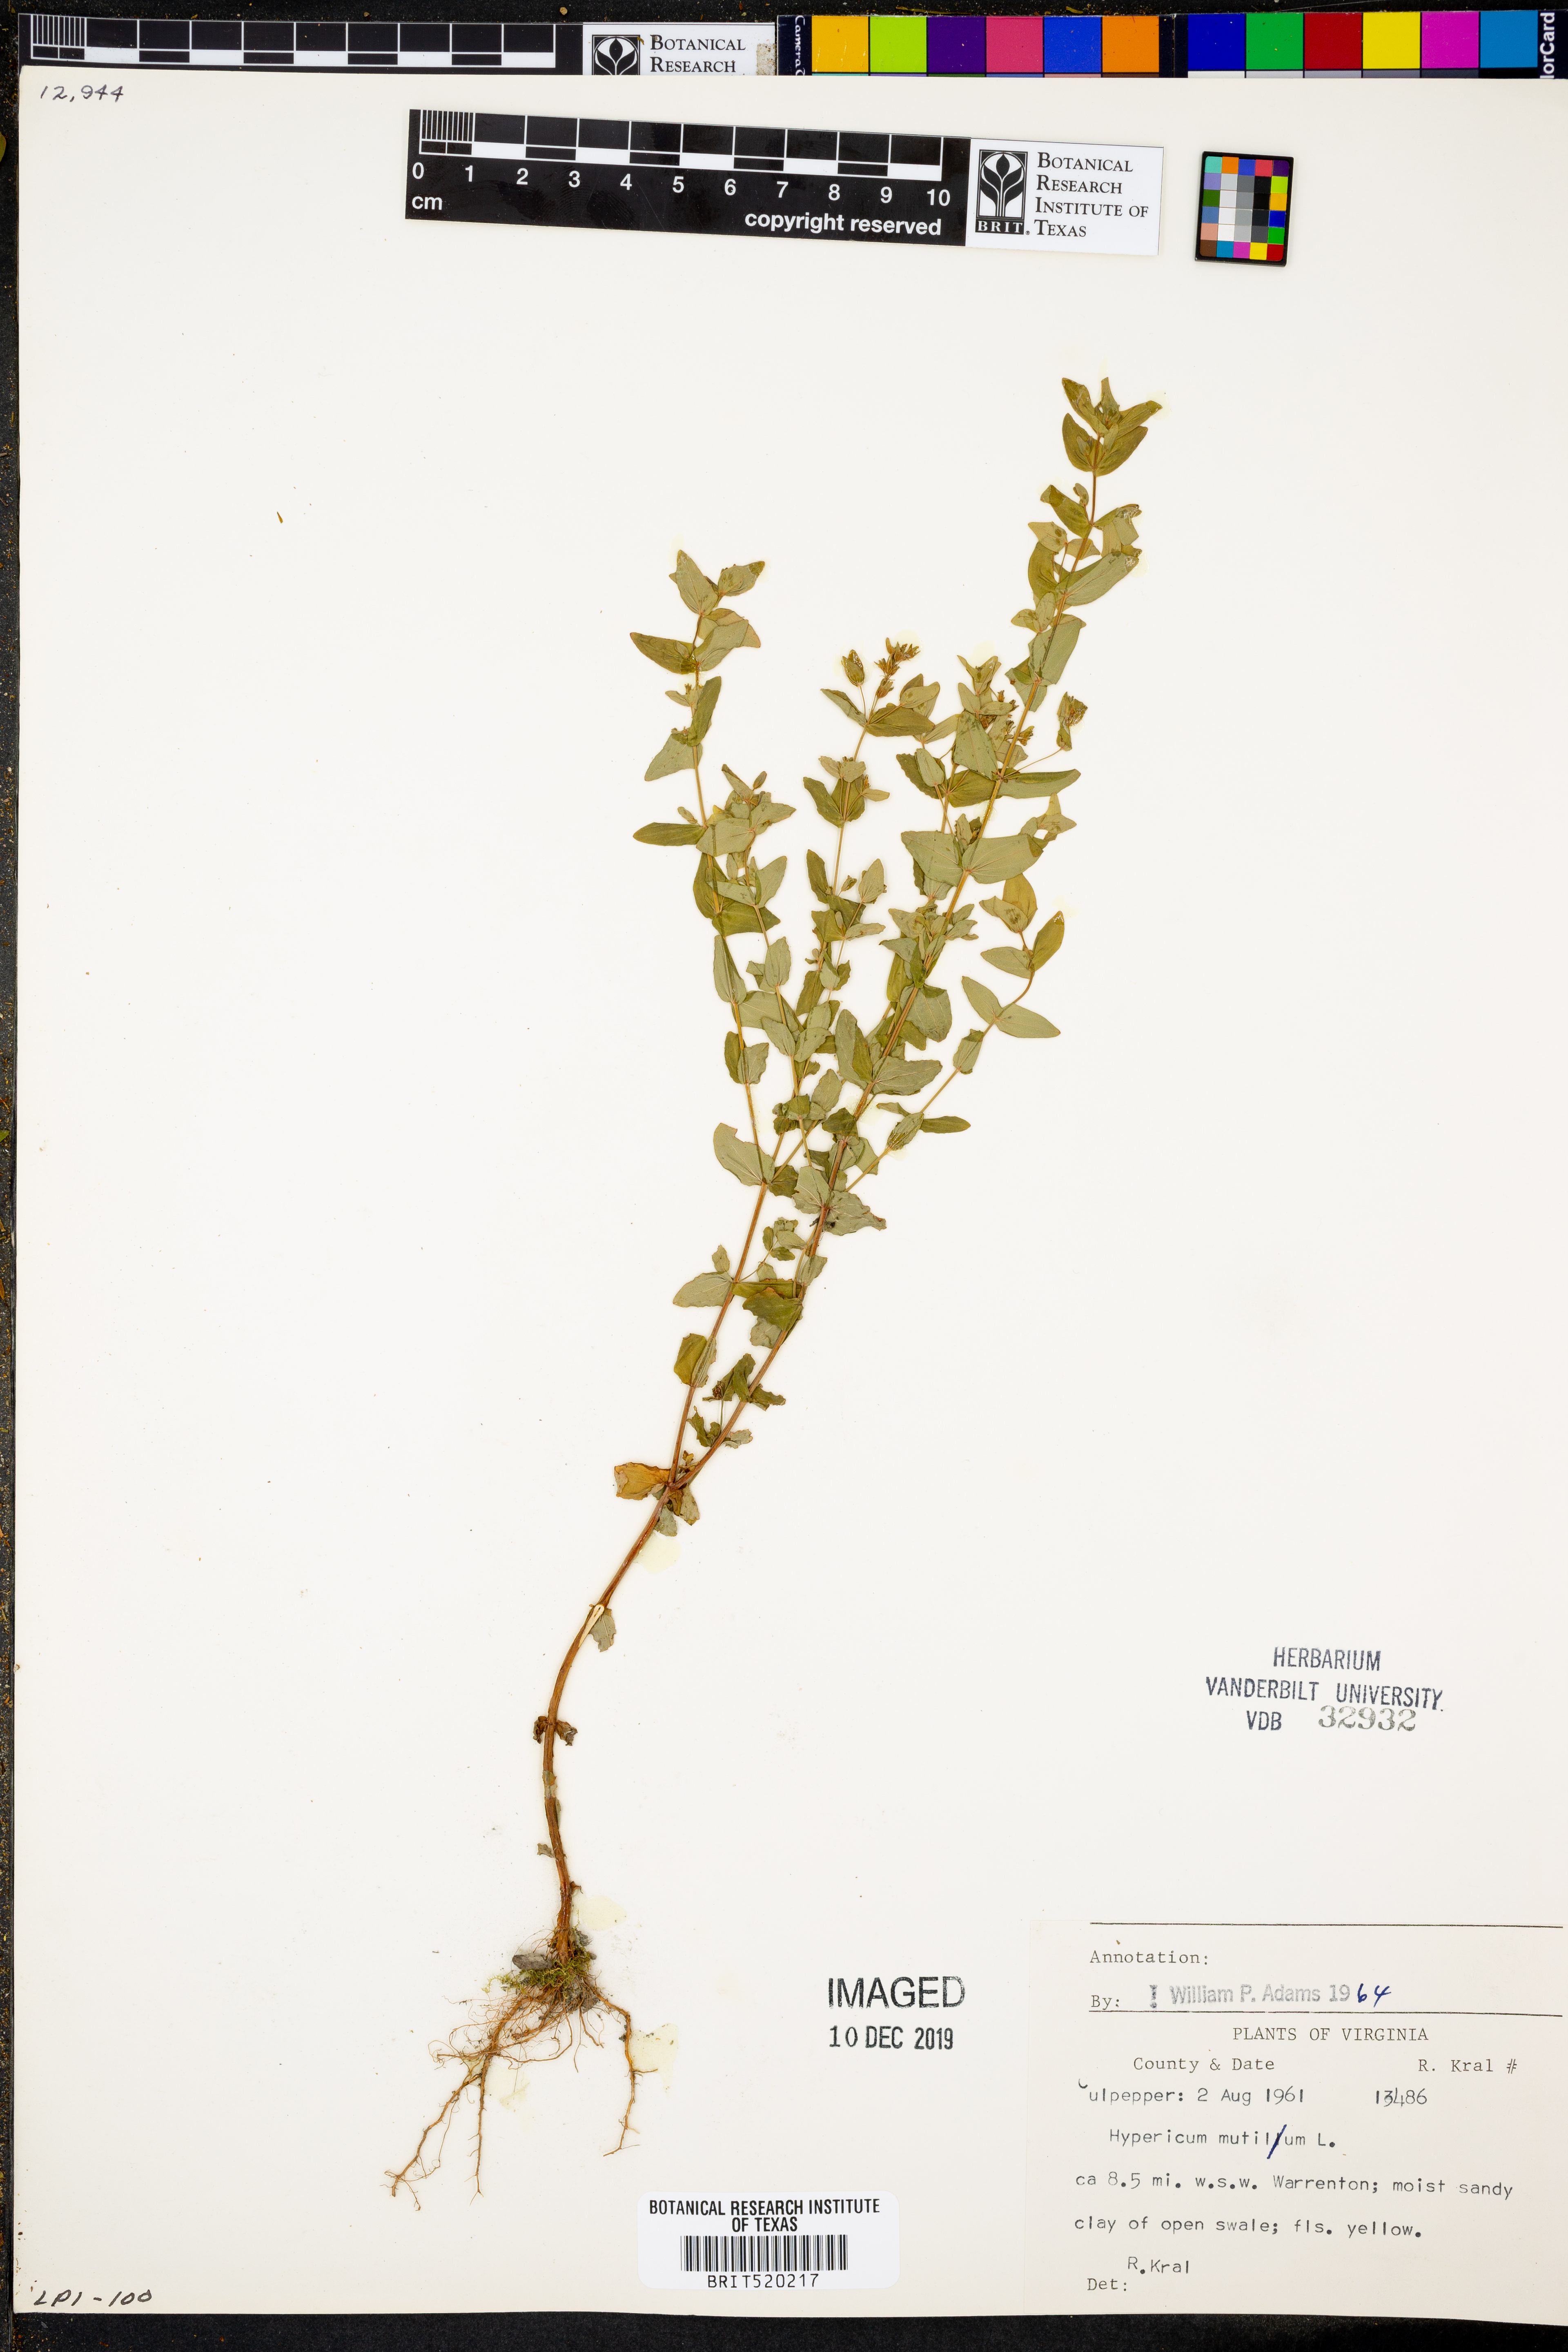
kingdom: Plantae
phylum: Tracheophyta
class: Magnoliopsida
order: Malpighiales
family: Hypericaceae
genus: Hypericum
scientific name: Hypericum mutilum
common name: Dwarf st. john's-wort
